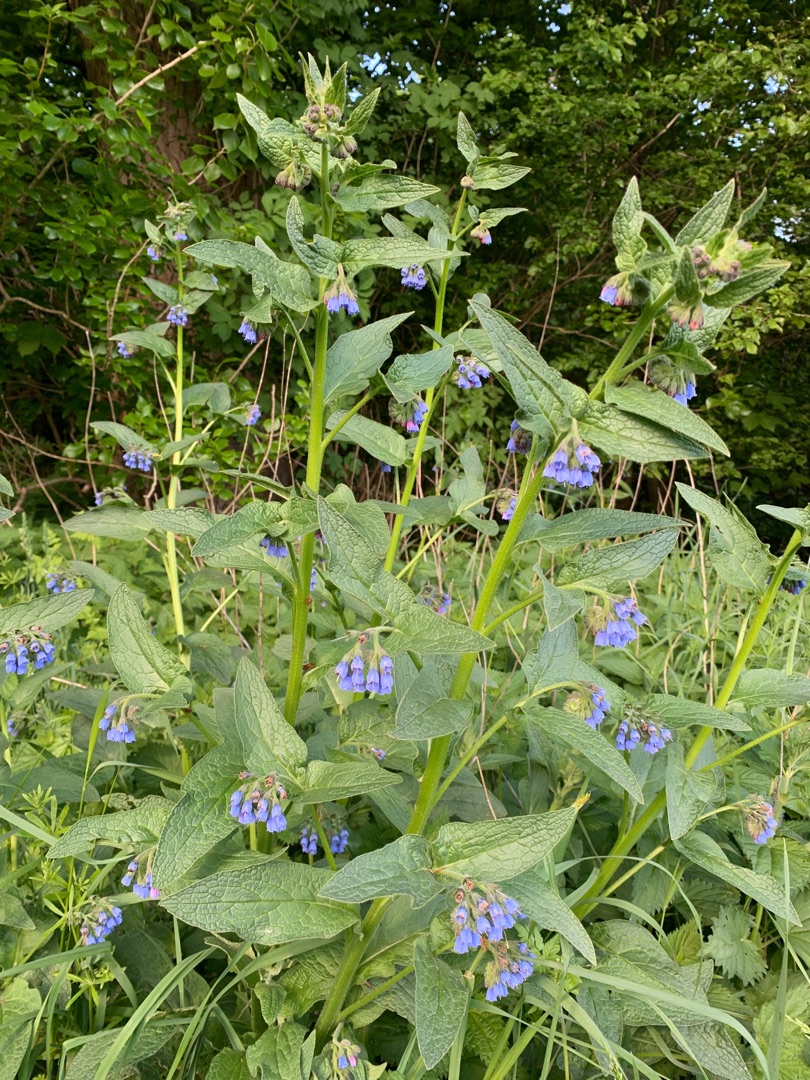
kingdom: Plantae
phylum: Tracheophyta
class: Magnoliopsida
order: Boraginales
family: Boraginaceae
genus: Symphytum
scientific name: Symphytum uplandicum
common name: Foder-kulsukker
